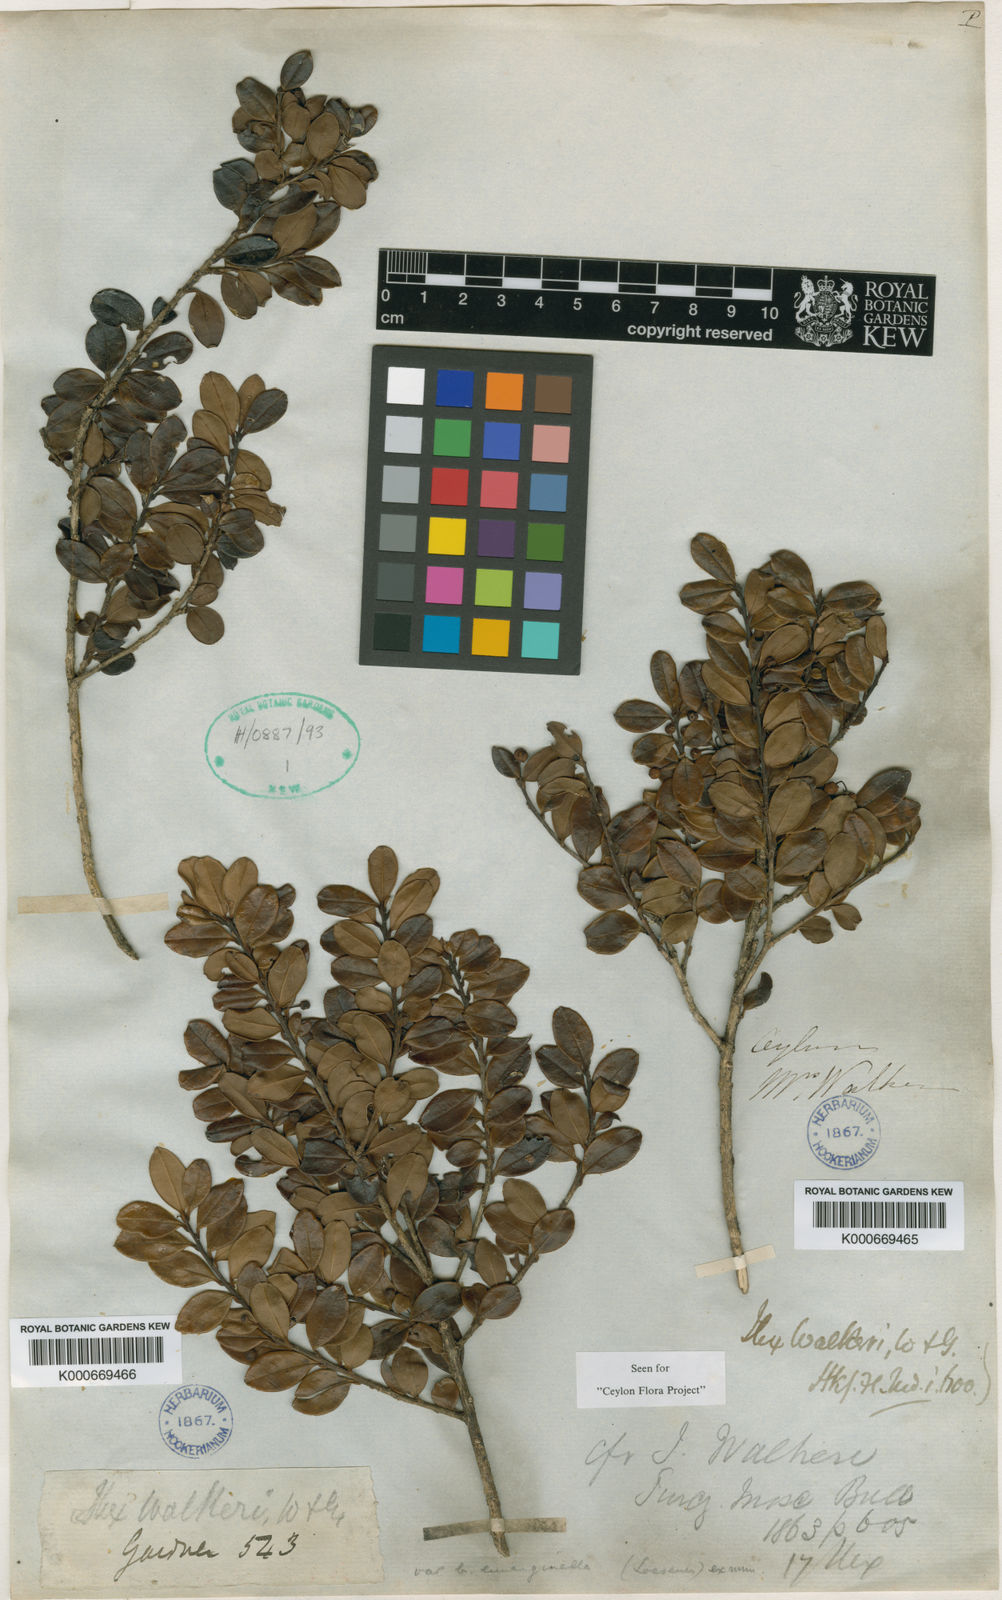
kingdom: Plantae
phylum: Tracheophyta
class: Magnoliopsida
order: Aquifoliales
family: Aquifoliaceae
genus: Ilex
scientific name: Ilex walkeri
